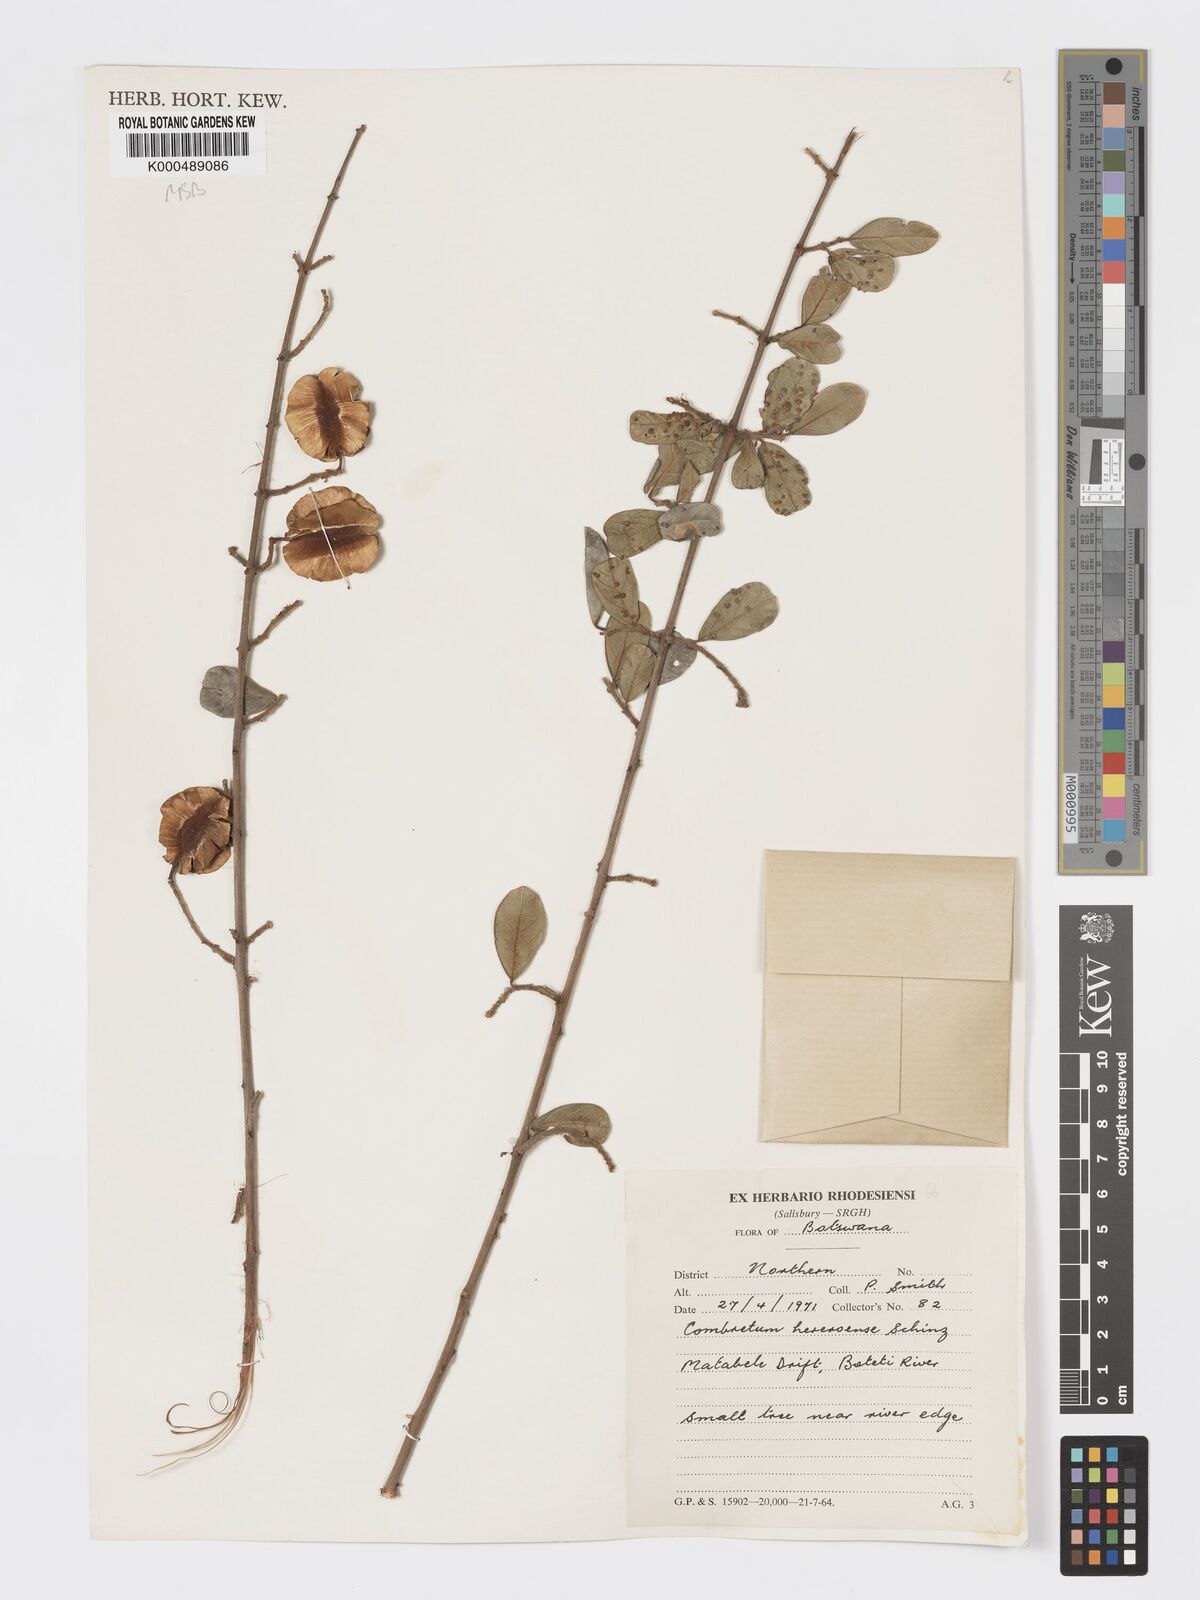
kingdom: Plantae
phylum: Tracheophyta
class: Magnoliopsida
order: Myrtales
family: Combretaceae
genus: Combretum
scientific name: Combretum hereroense
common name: Russet bushwillow
